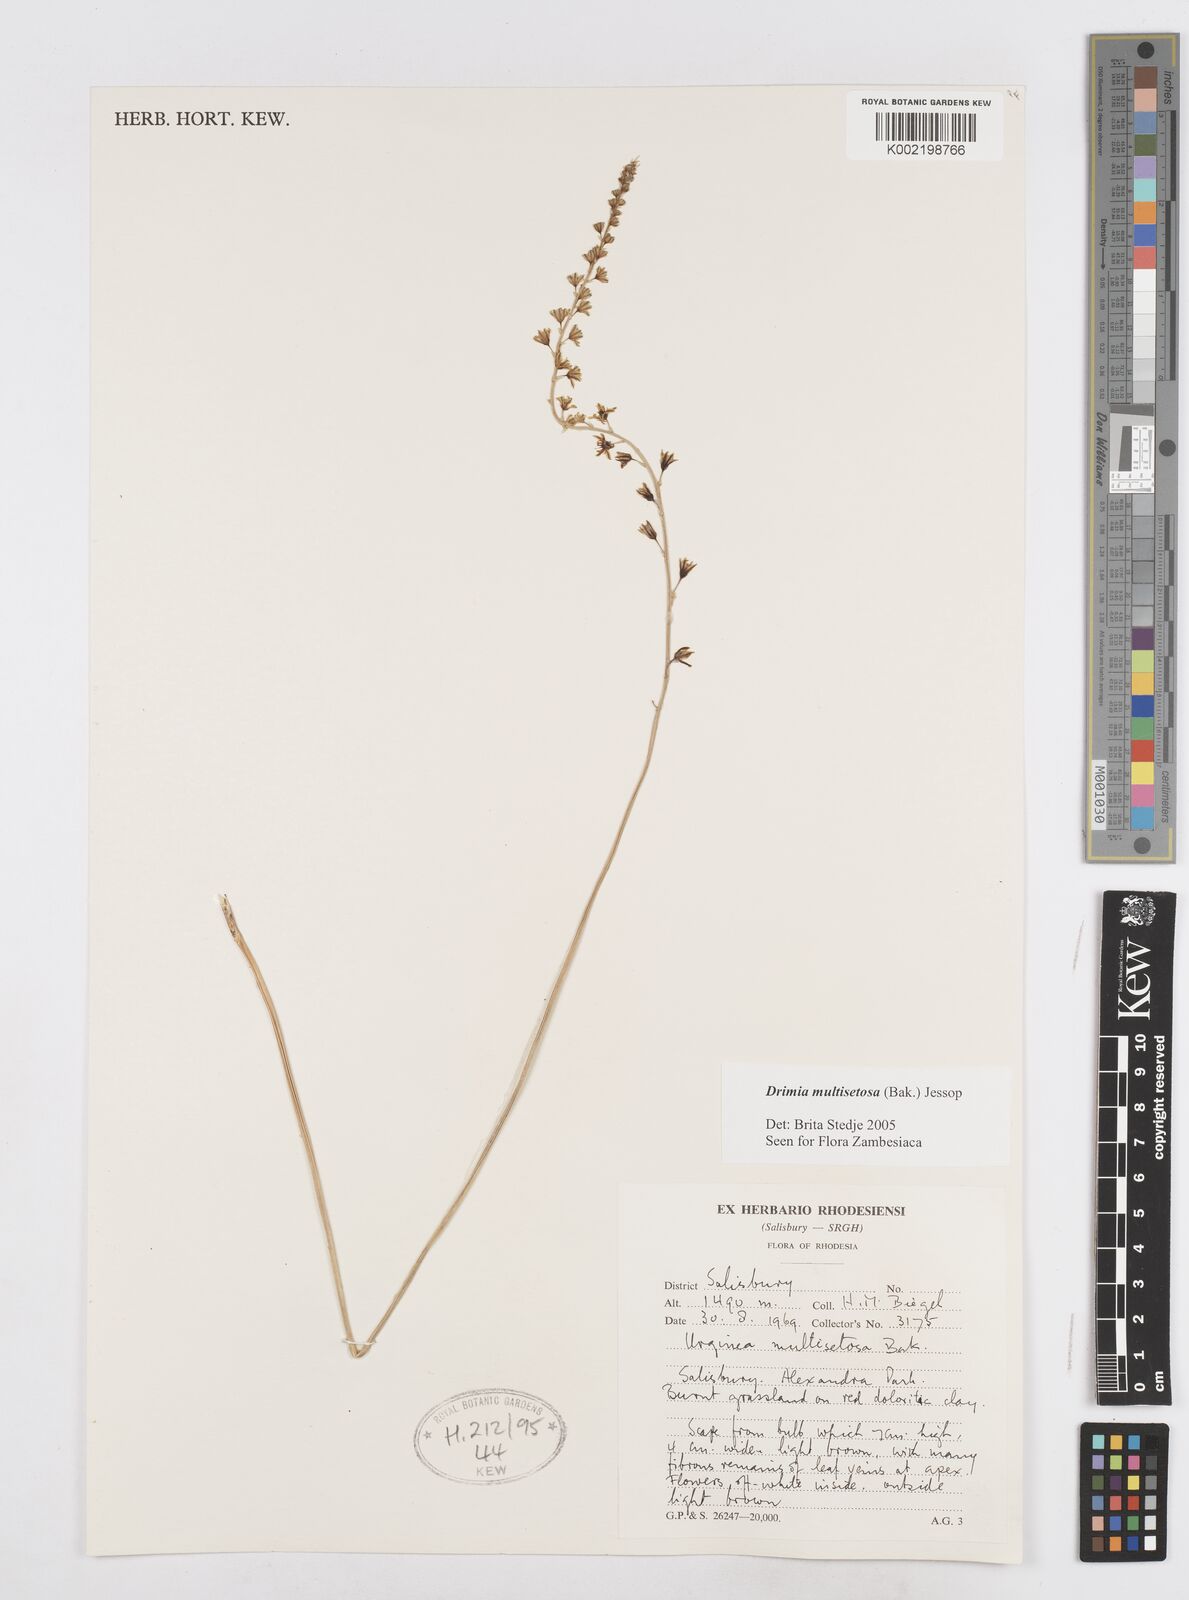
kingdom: Plantae
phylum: Tracheophyta
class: Liliopsida
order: Asparagales
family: Asparagaceae
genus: Drimia
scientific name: Drimia multisetosa
